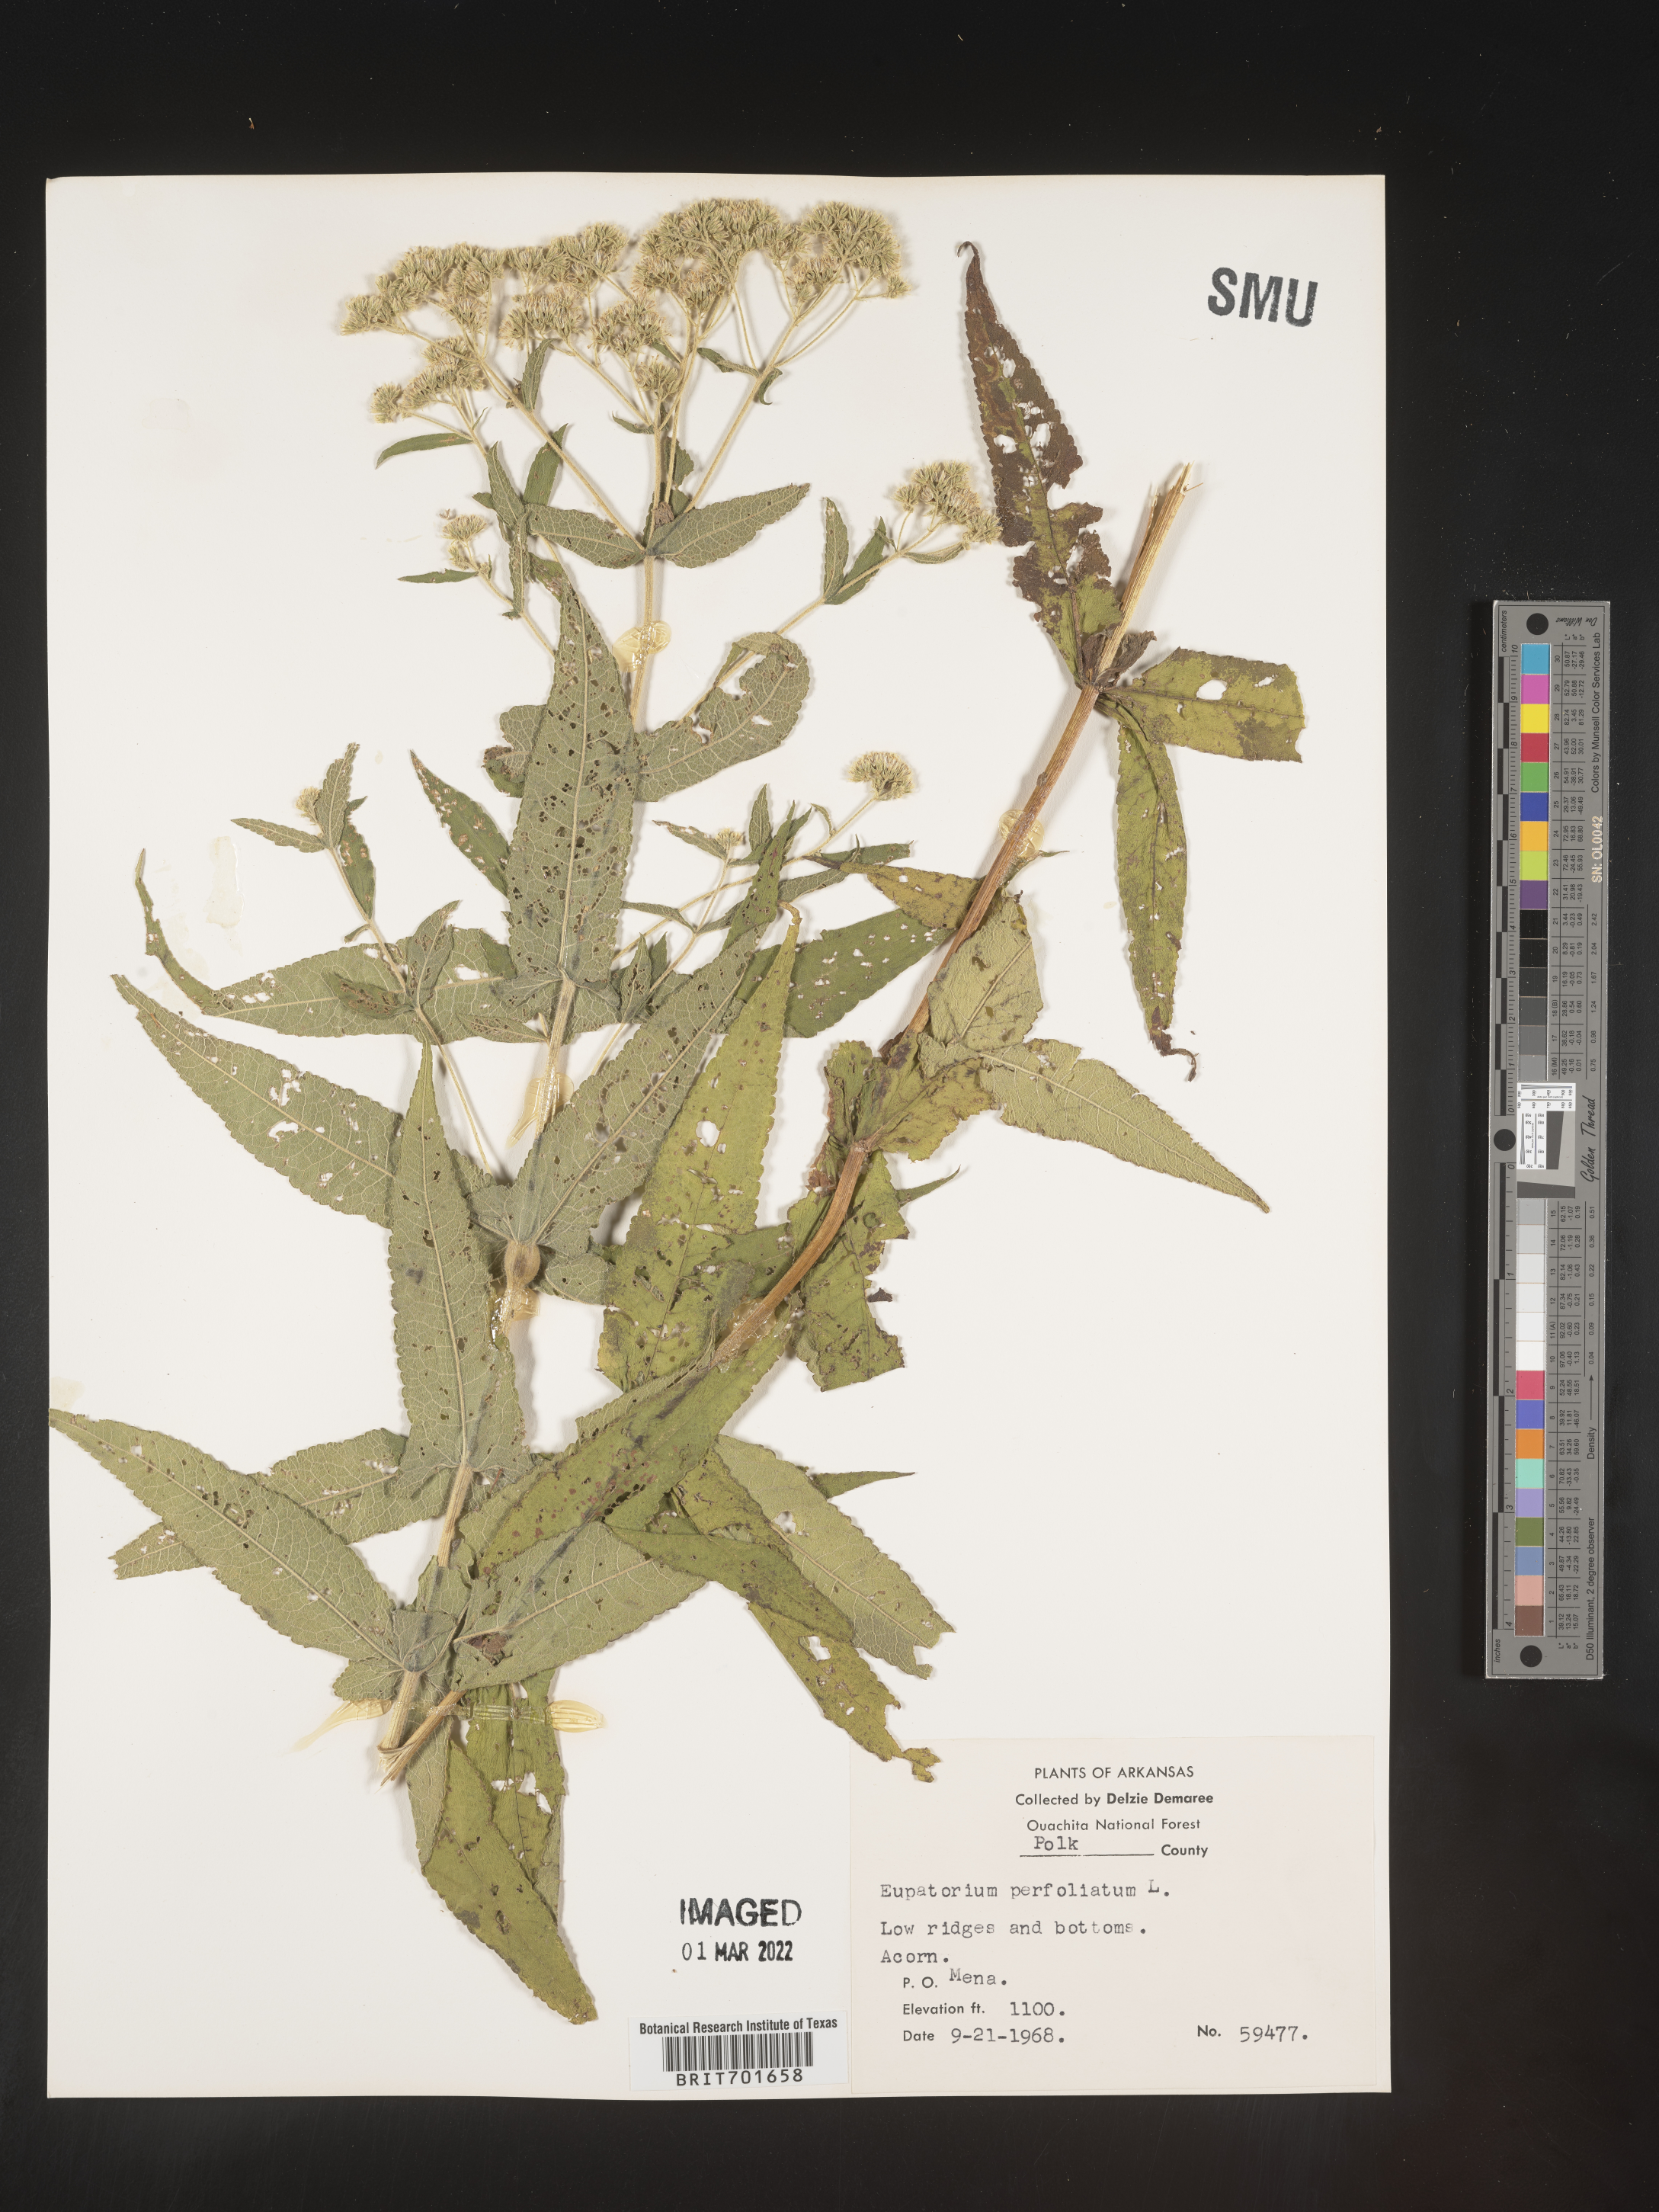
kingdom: Plantae
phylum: Tracheophyta
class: Magnoliopsida
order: Asterales
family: Asteraceae
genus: Eupatorium
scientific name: Eupatorium perfoliatum
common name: Boneset
